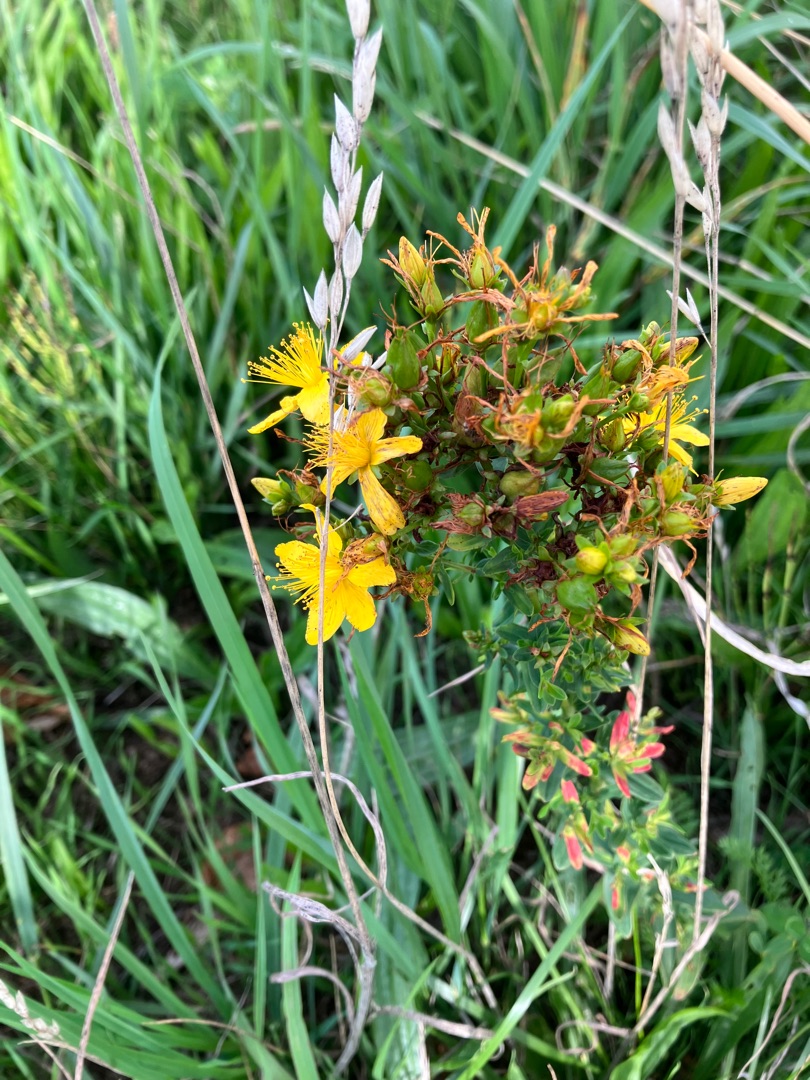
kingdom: Plantae
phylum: Tracheophyta
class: Magnoliopsida
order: Malpighiales
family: Hypericaceae
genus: Hypericum
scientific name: Hypericum perforatum
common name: Prikbladet perikon
